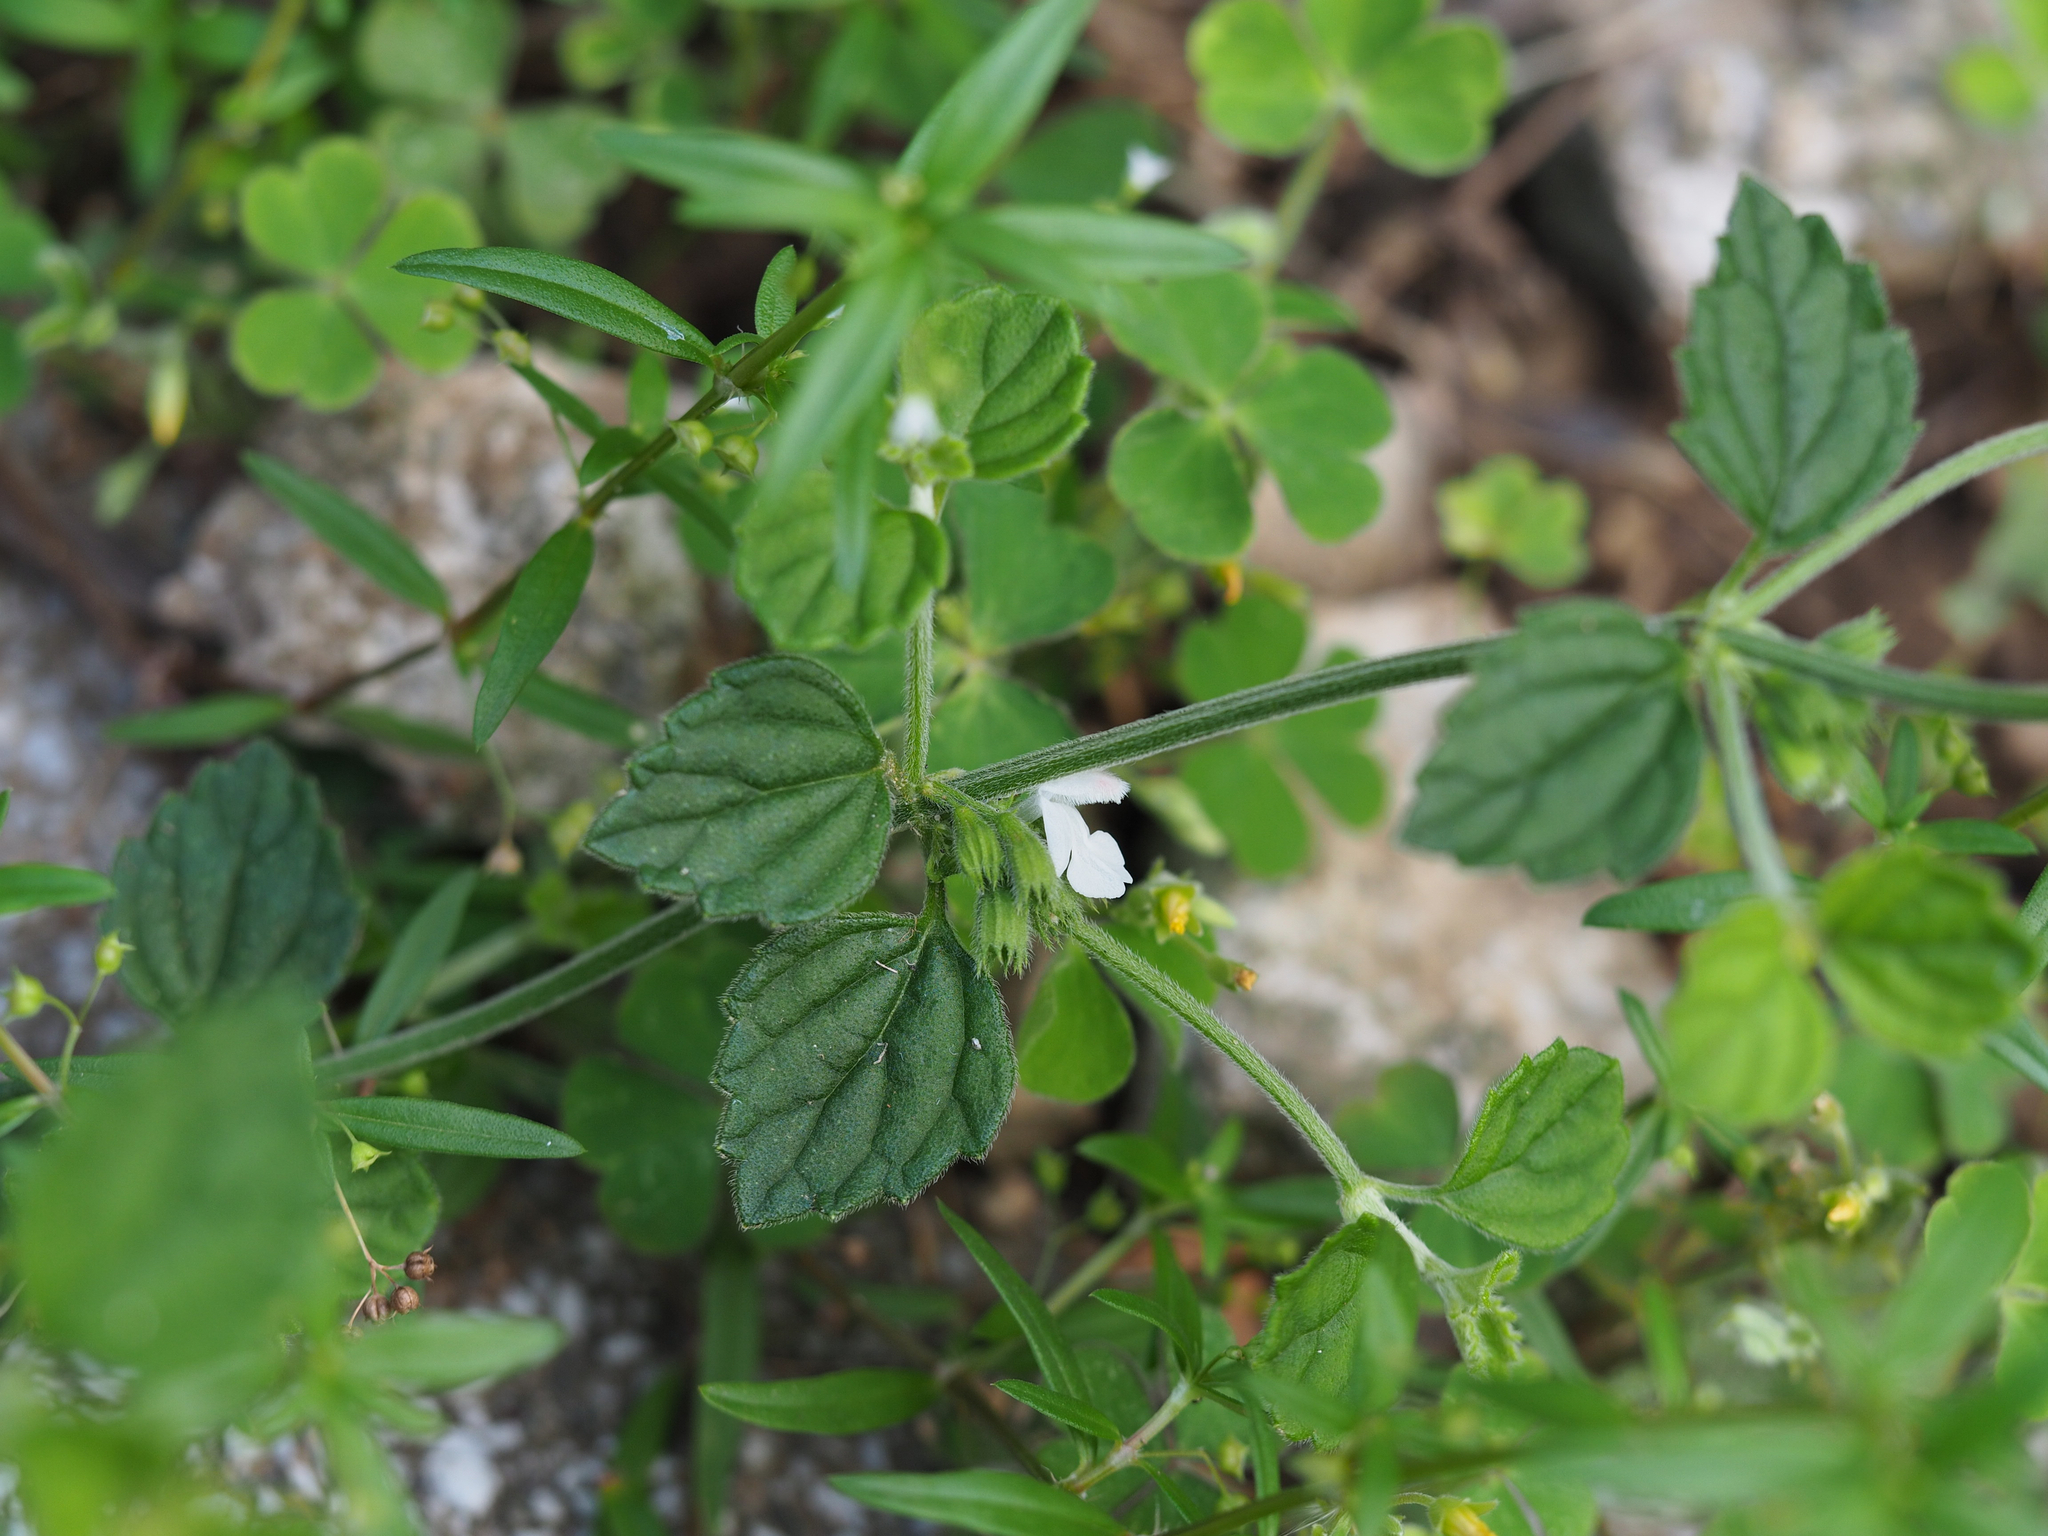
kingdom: Plantae
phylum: Tracheophyta
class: Magnoliopsida
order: Lamiales
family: Lamiaceae
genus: Leucas
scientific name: Leucas chinensis
